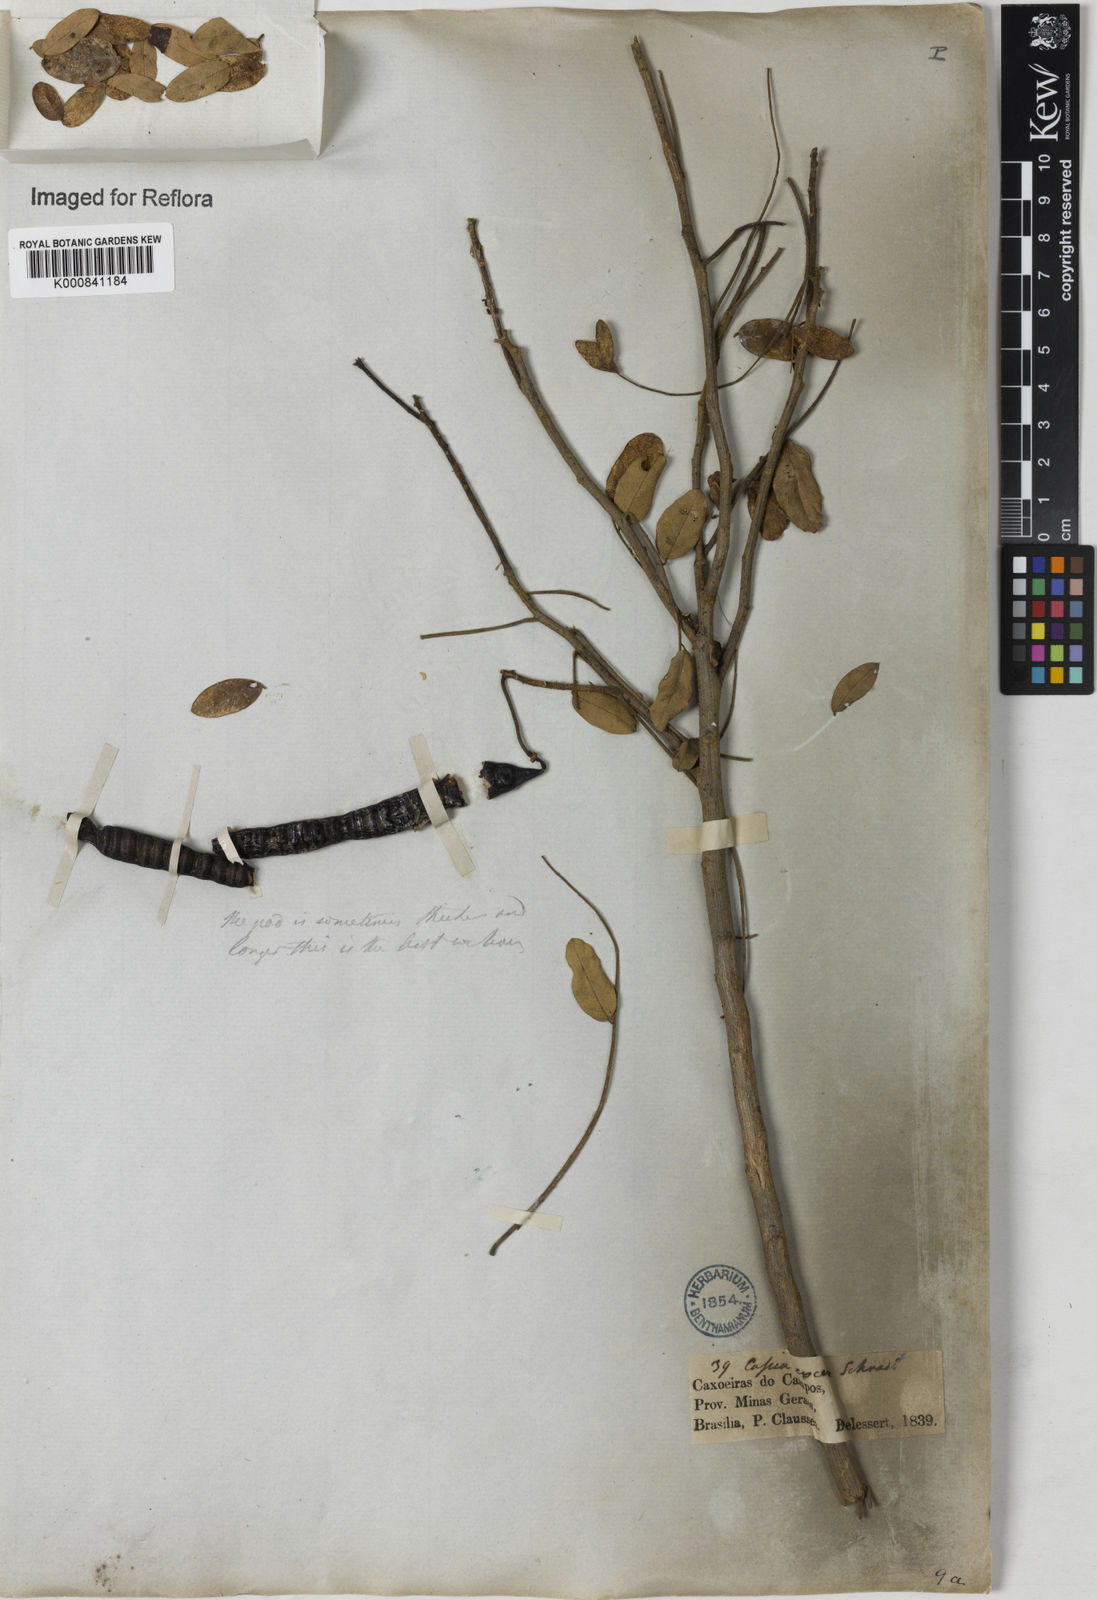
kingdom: Plantae
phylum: Tracheophyta
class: Magnoliopsida
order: Fabales
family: Fabaceae
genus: Senna
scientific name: Senna spectabilis
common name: Casia amarilla
